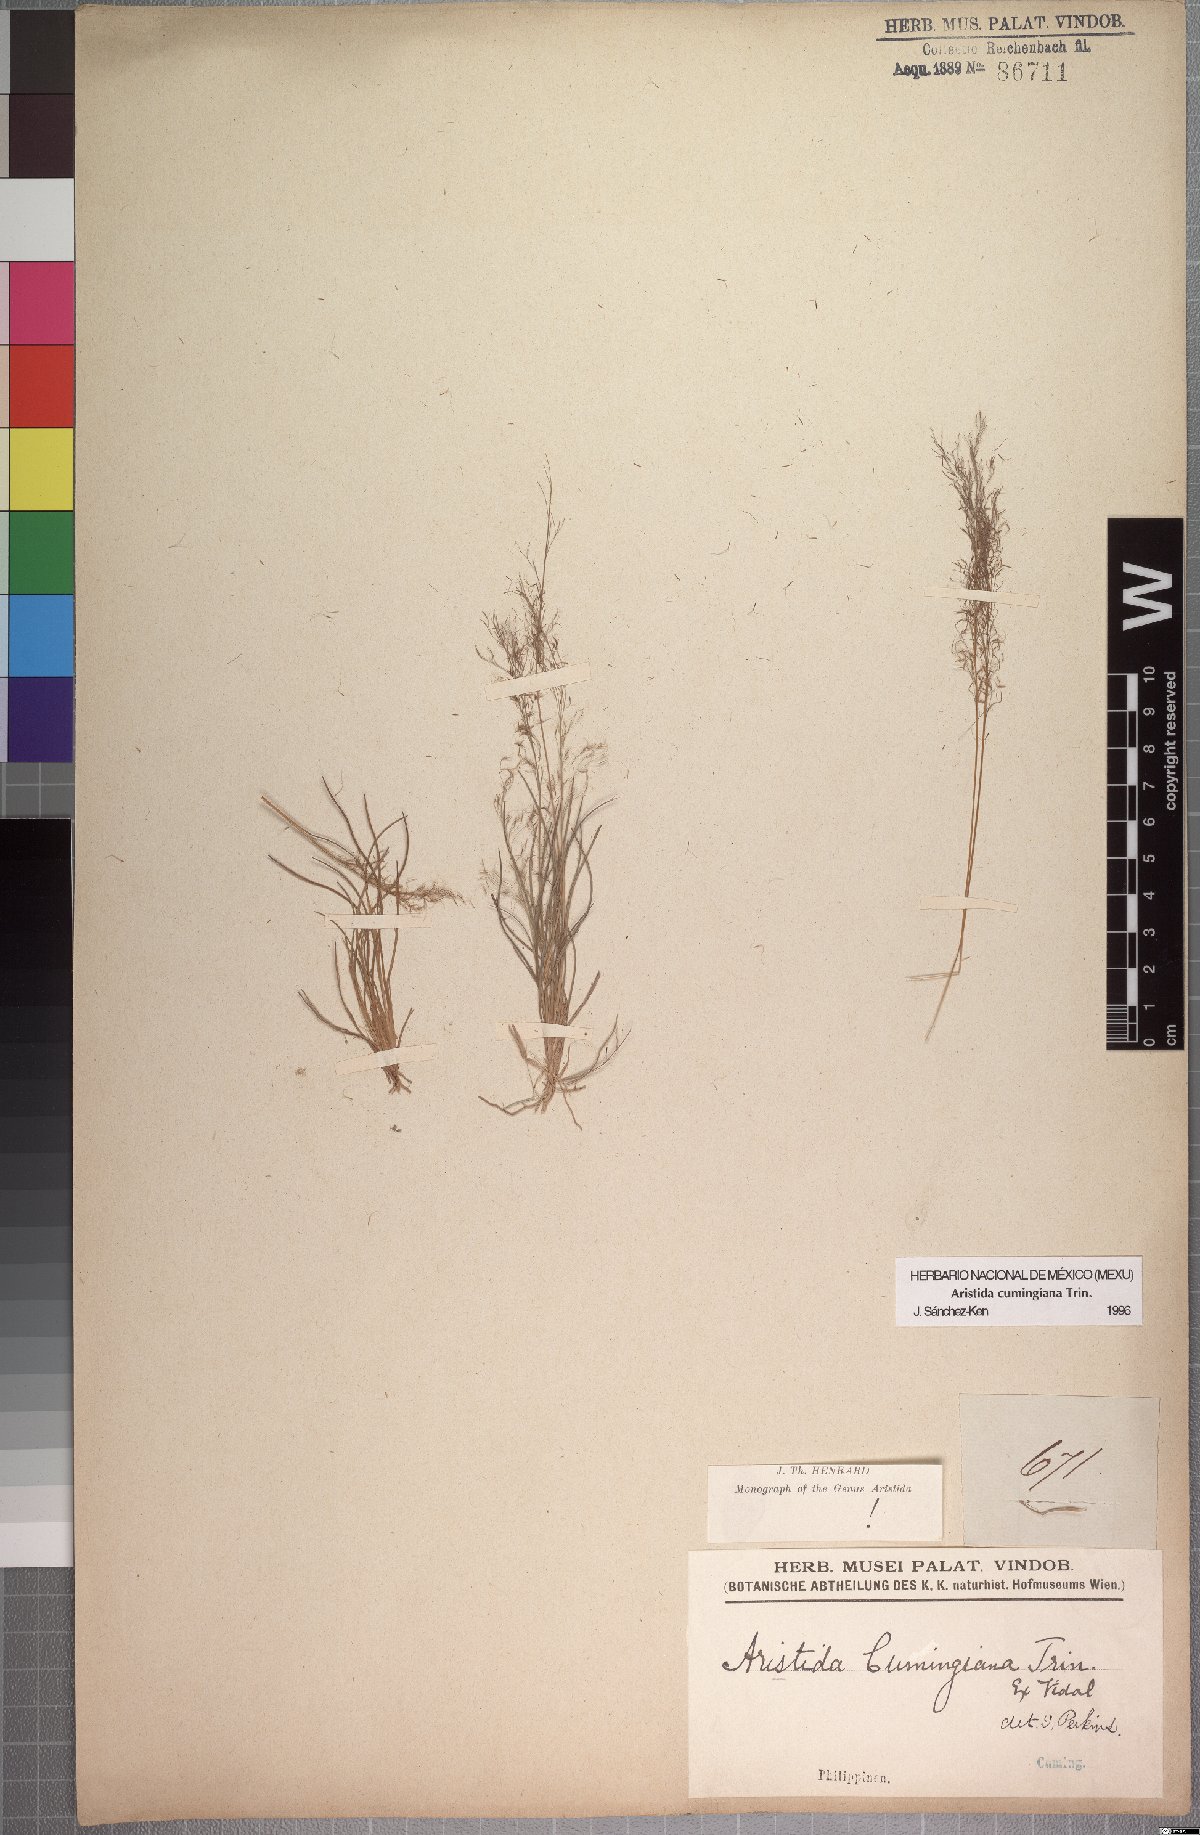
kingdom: Plantae
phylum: Tracheophyta
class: Liliopsida
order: Poales
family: Poaceae
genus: Aristida
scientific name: Aristida cumingiana
